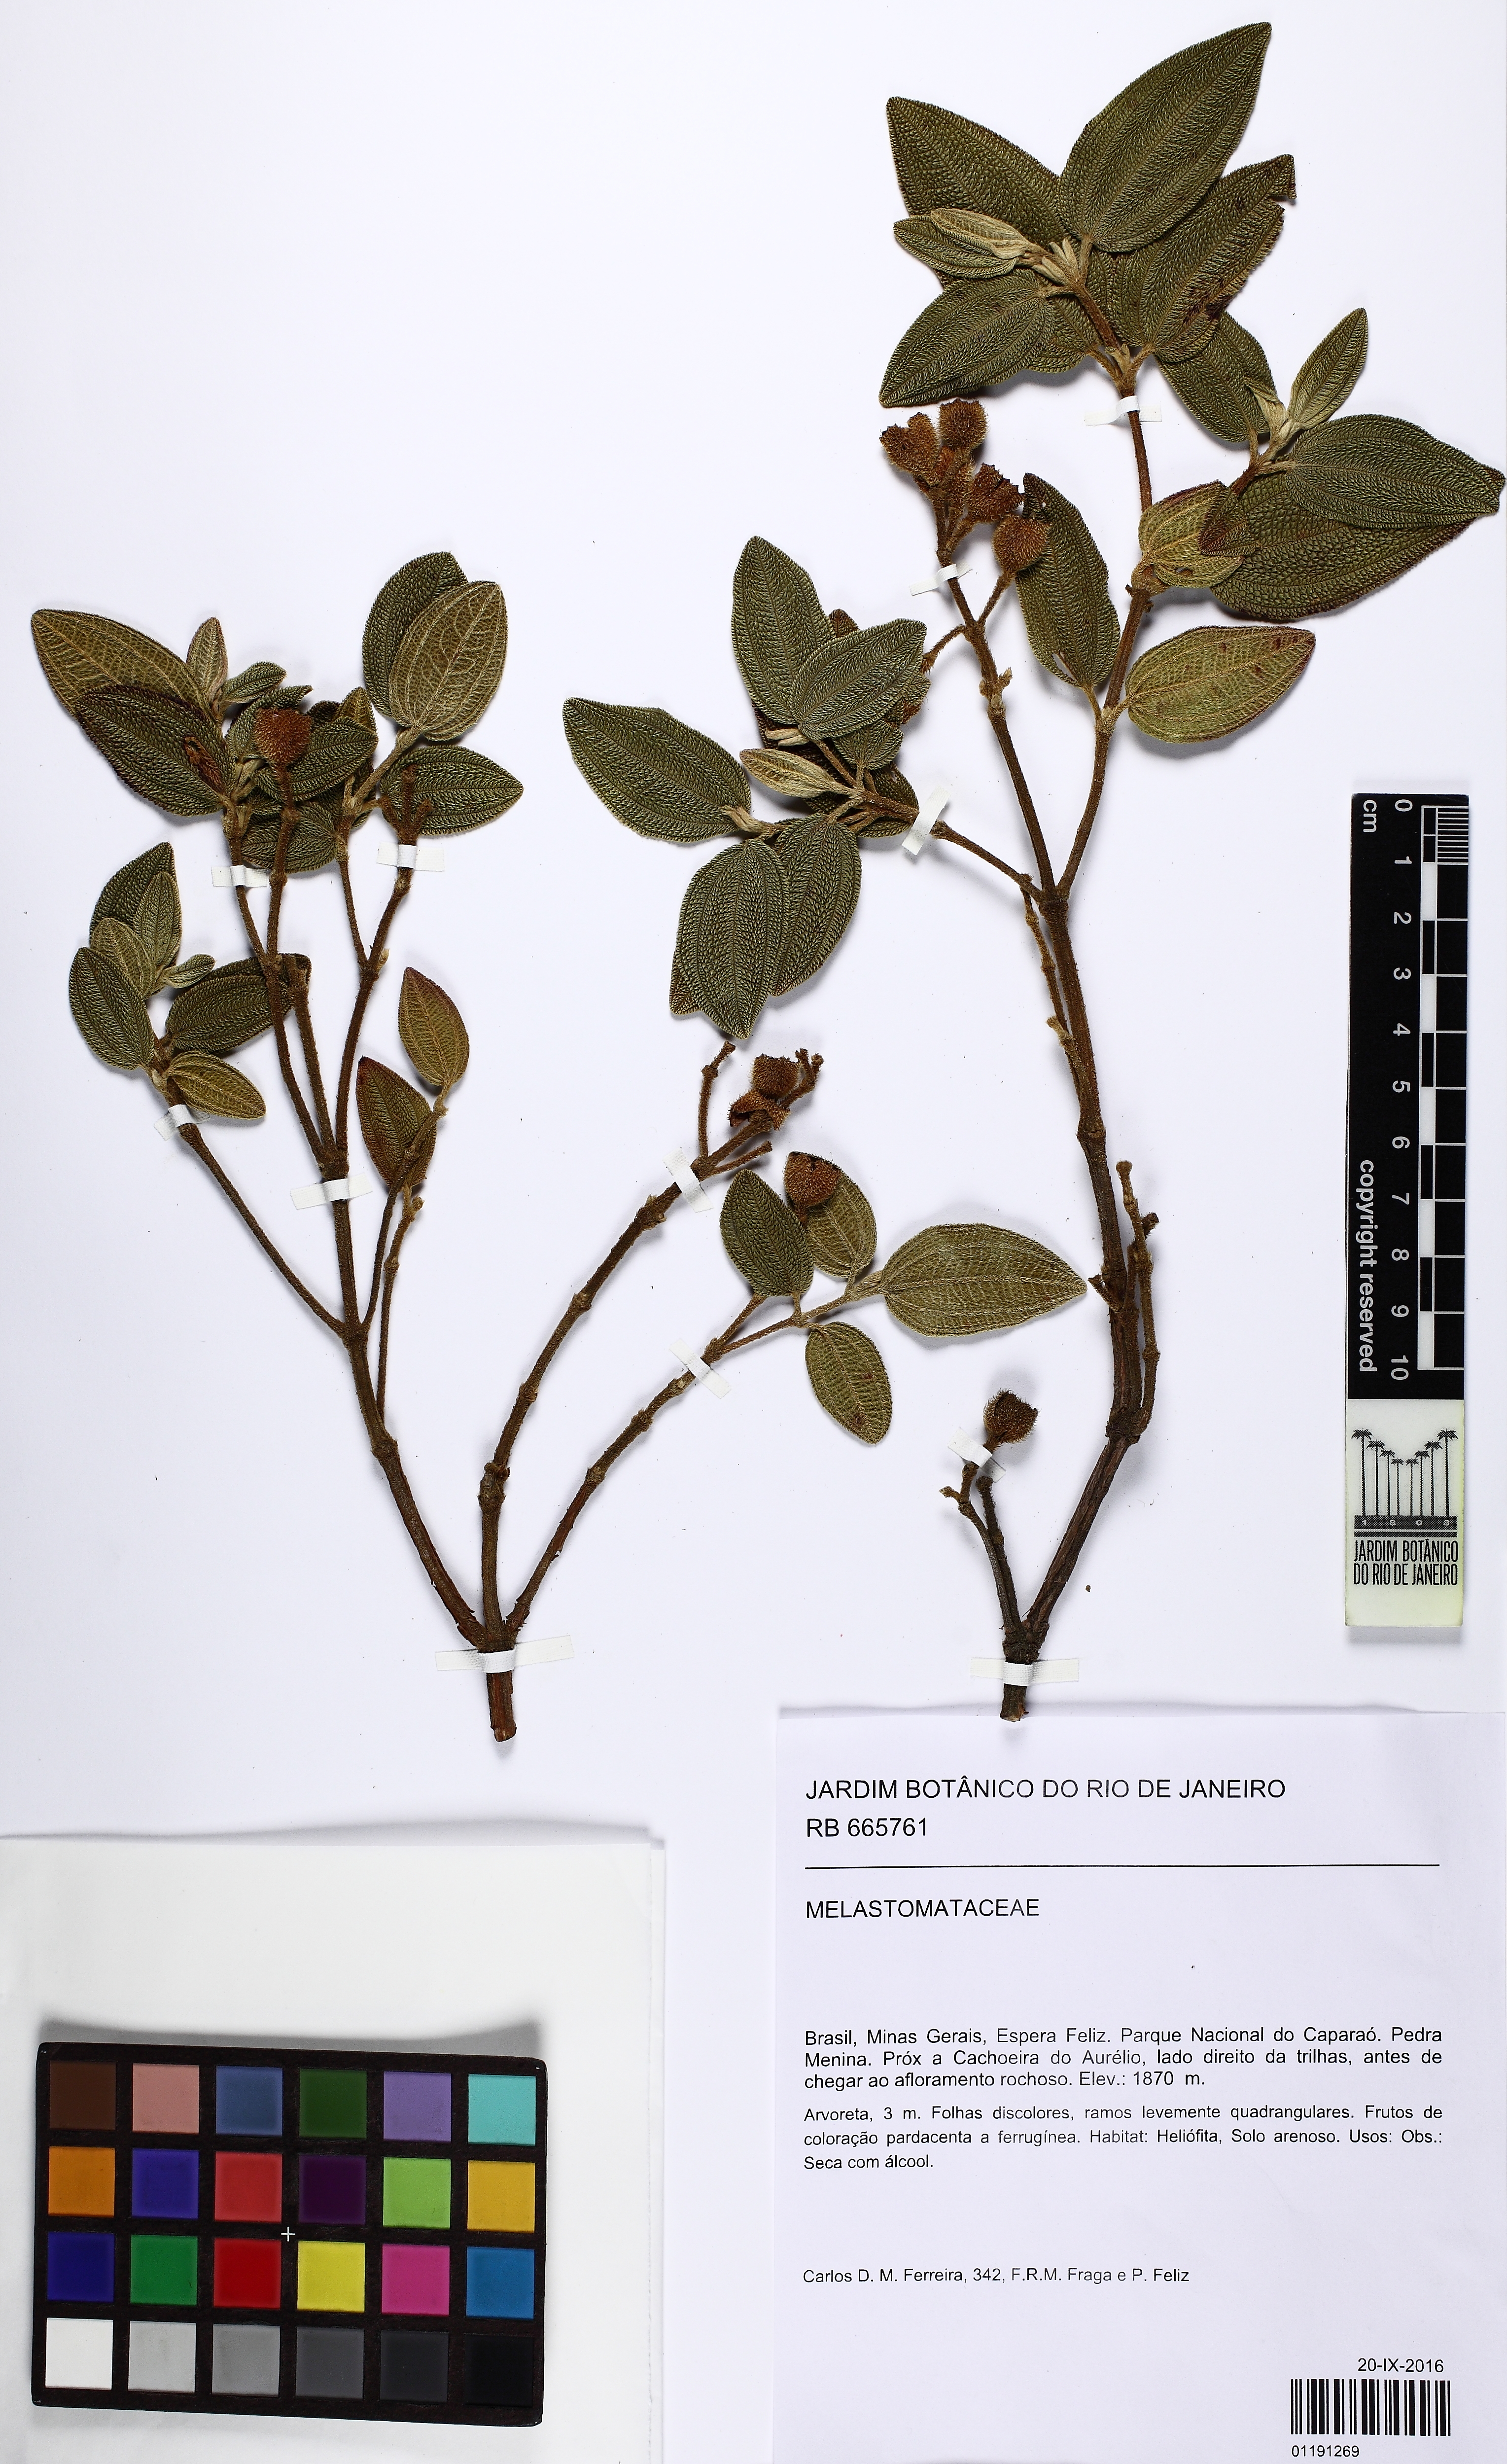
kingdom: Plantae
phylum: Tracheophyta
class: Magnoliopsida
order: Myrtales
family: Melastomataceae
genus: Pleroma
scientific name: Pleroma echinatum
